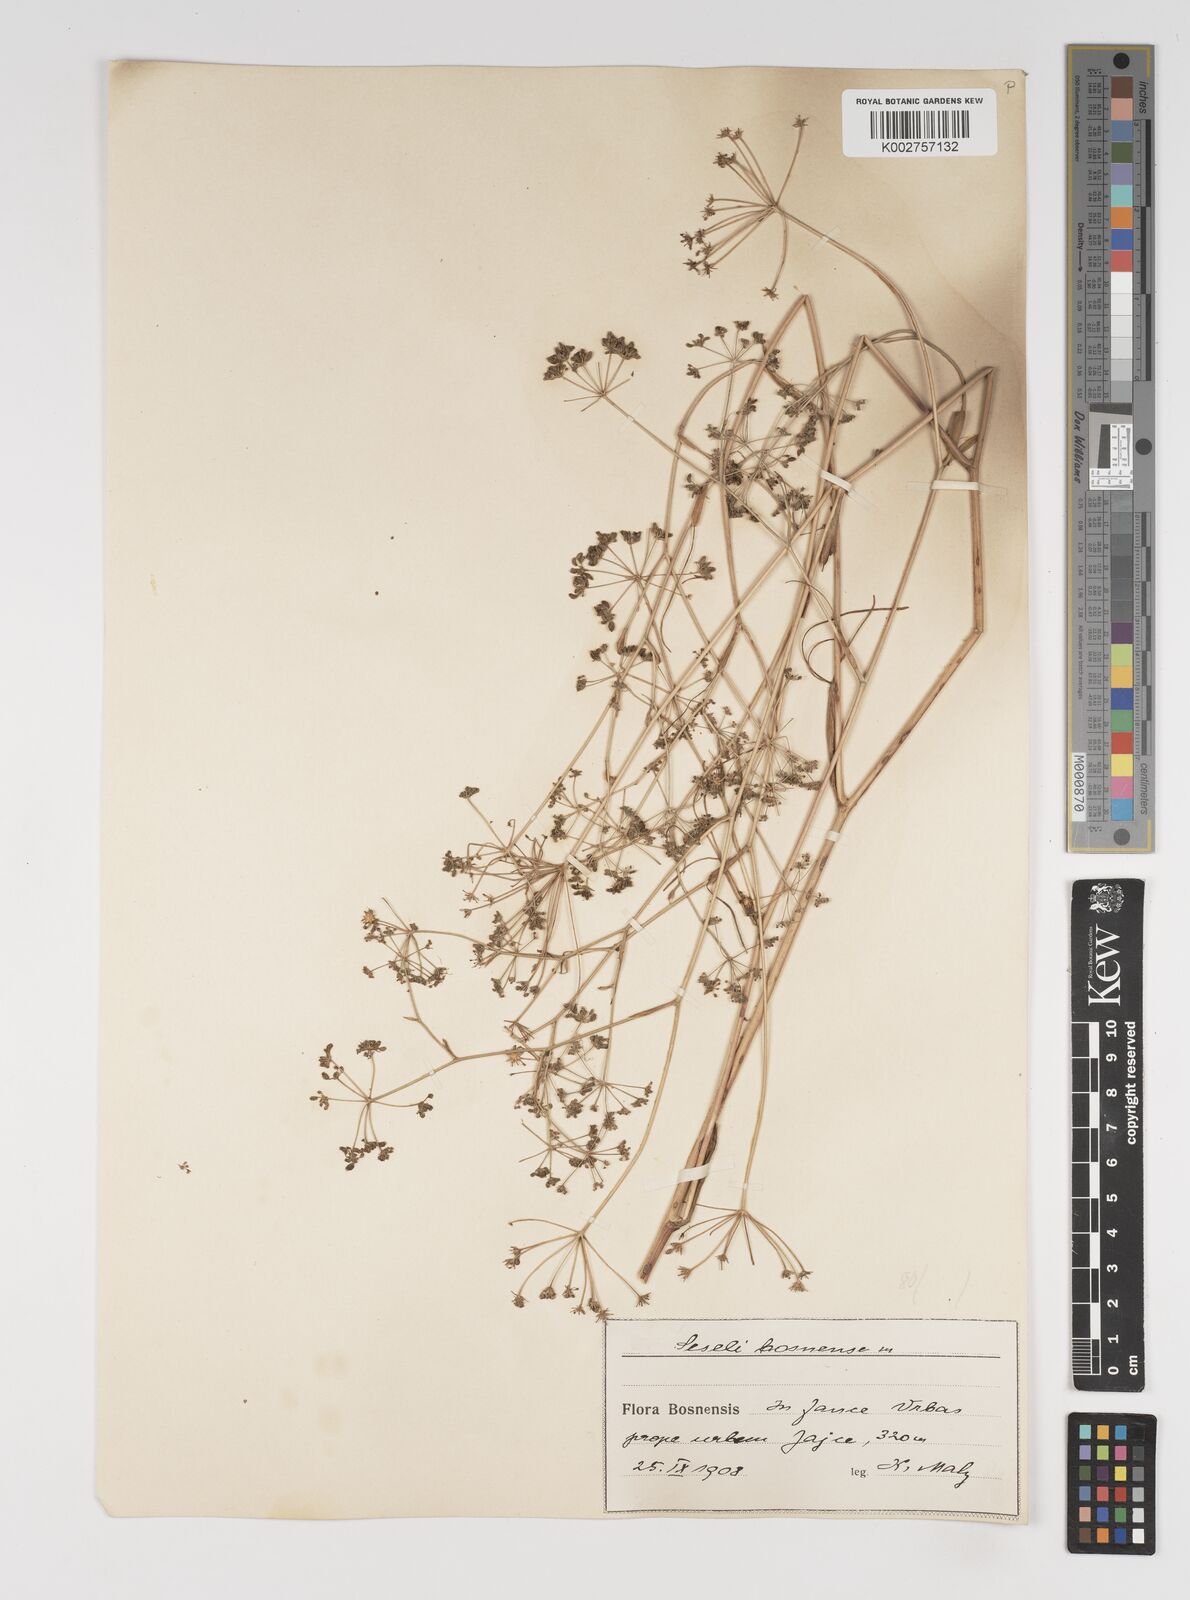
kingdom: Plantae
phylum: Tracheophyta
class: Magnoliopsida
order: Apiales
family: Apiaceae
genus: Seseli
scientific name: Seseli longifolium
